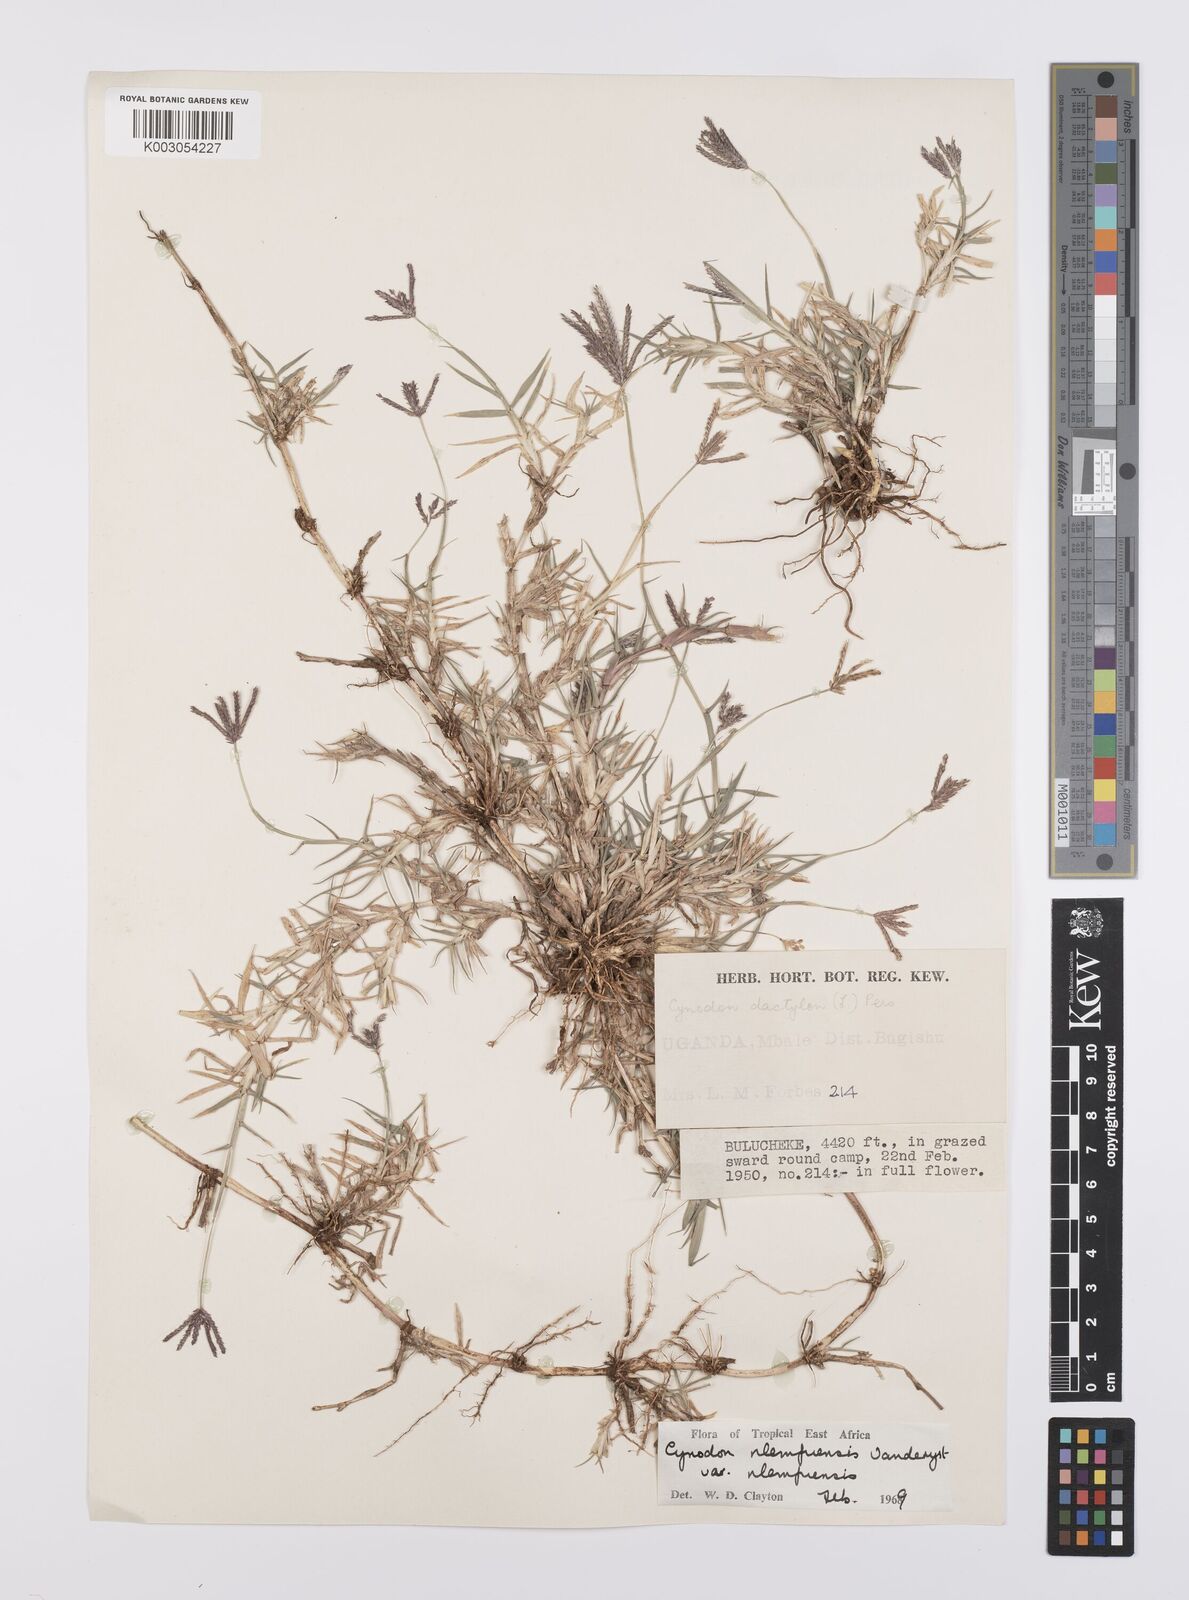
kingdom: Plantae
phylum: Tracheophyta
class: Liliopsida
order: Poales
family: Poaceae
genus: Cynodon
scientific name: Cynodon nlemfuensis
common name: African bermudagrass
